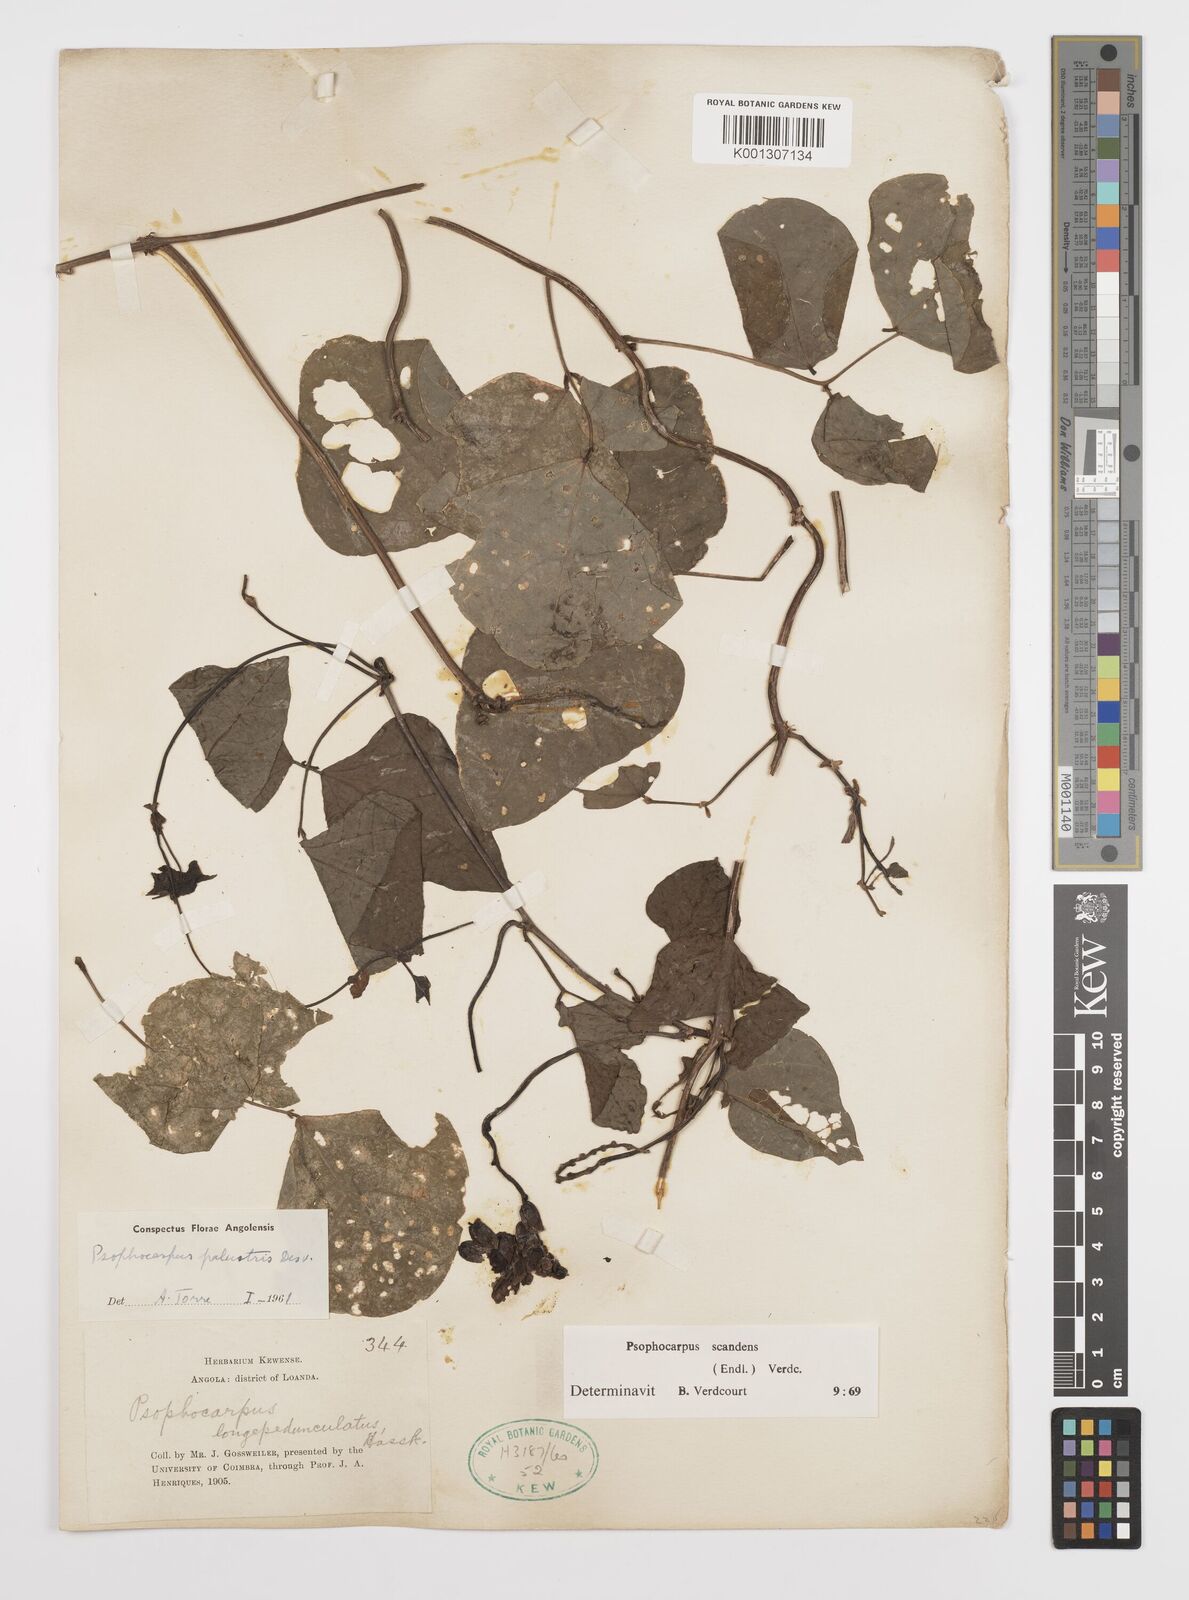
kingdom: Plantae
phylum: Tracheophyta
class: Magnoliopsida
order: Fabales
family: Fabaceae
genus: Psophocarpus
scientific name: Psophocarpus palustris
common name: African winged-bean
